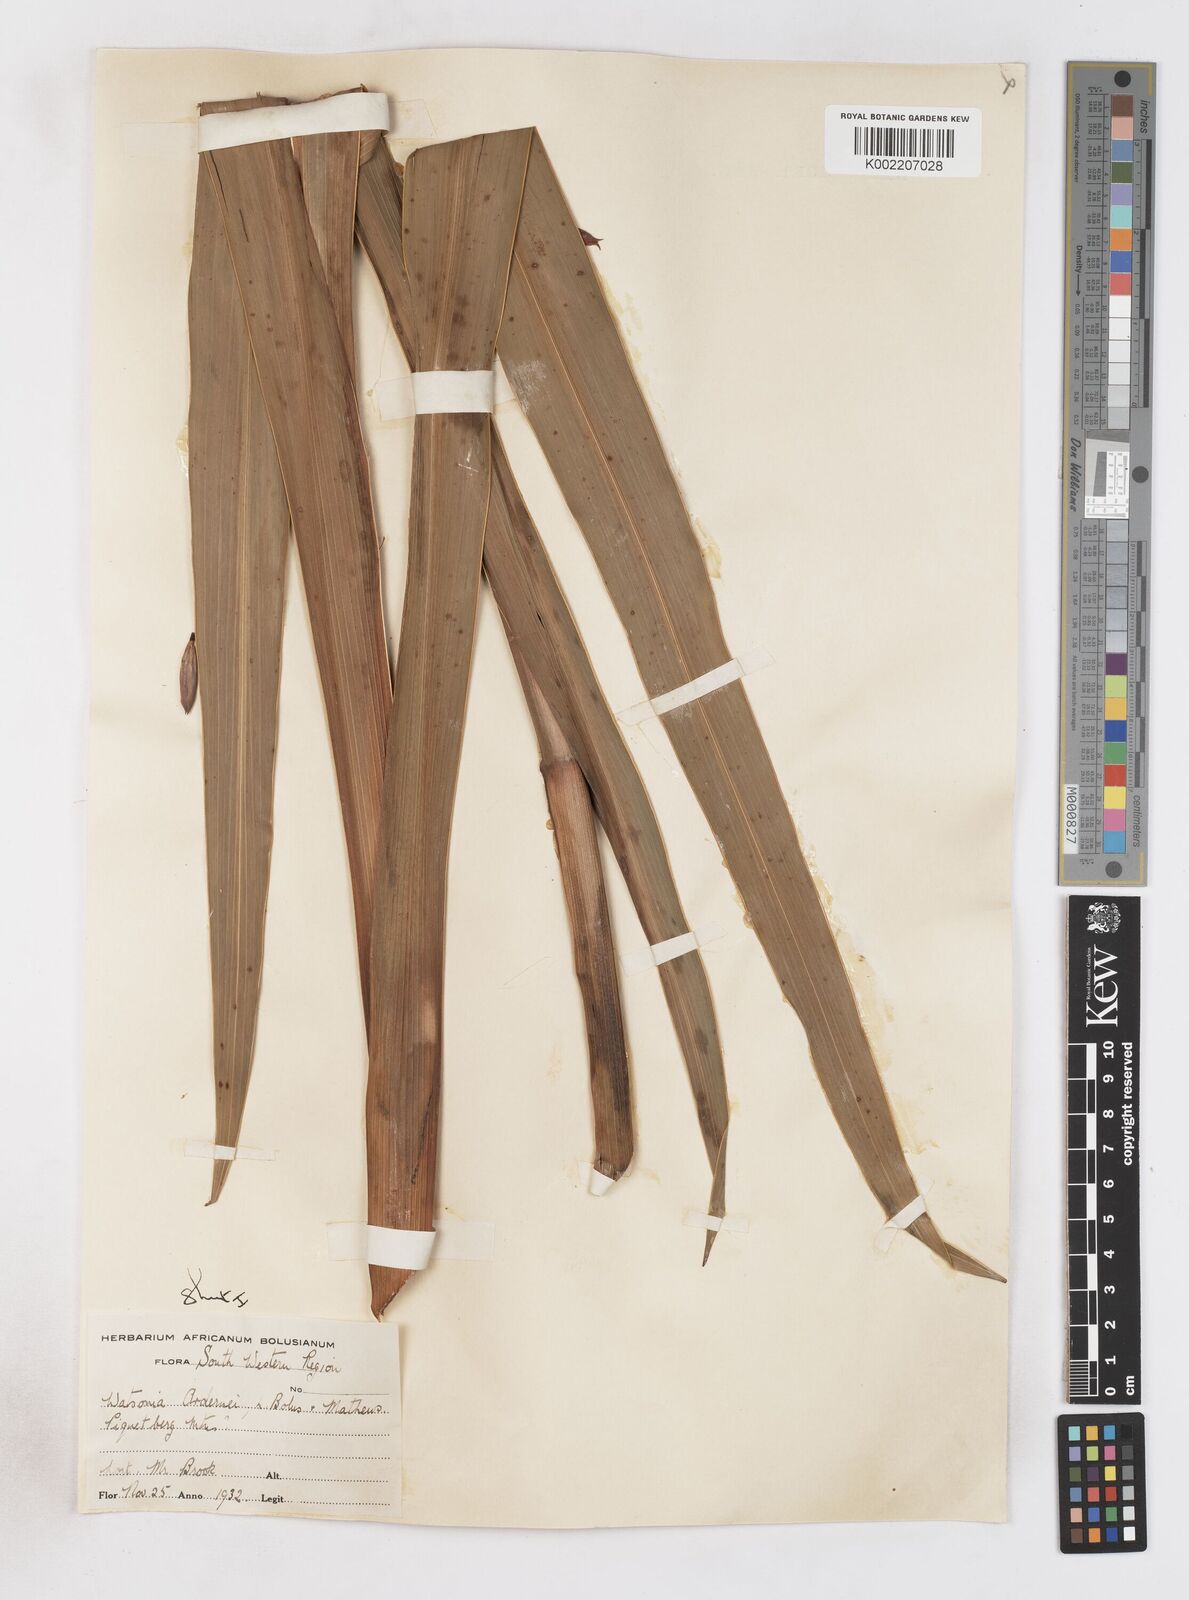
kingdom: Plantae
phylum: Tracheophyta
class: Liliopsida
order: Asparagales
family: Iridaceae
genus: Watsonia
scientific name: Watsonia borbonica
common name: Bugle-lily
